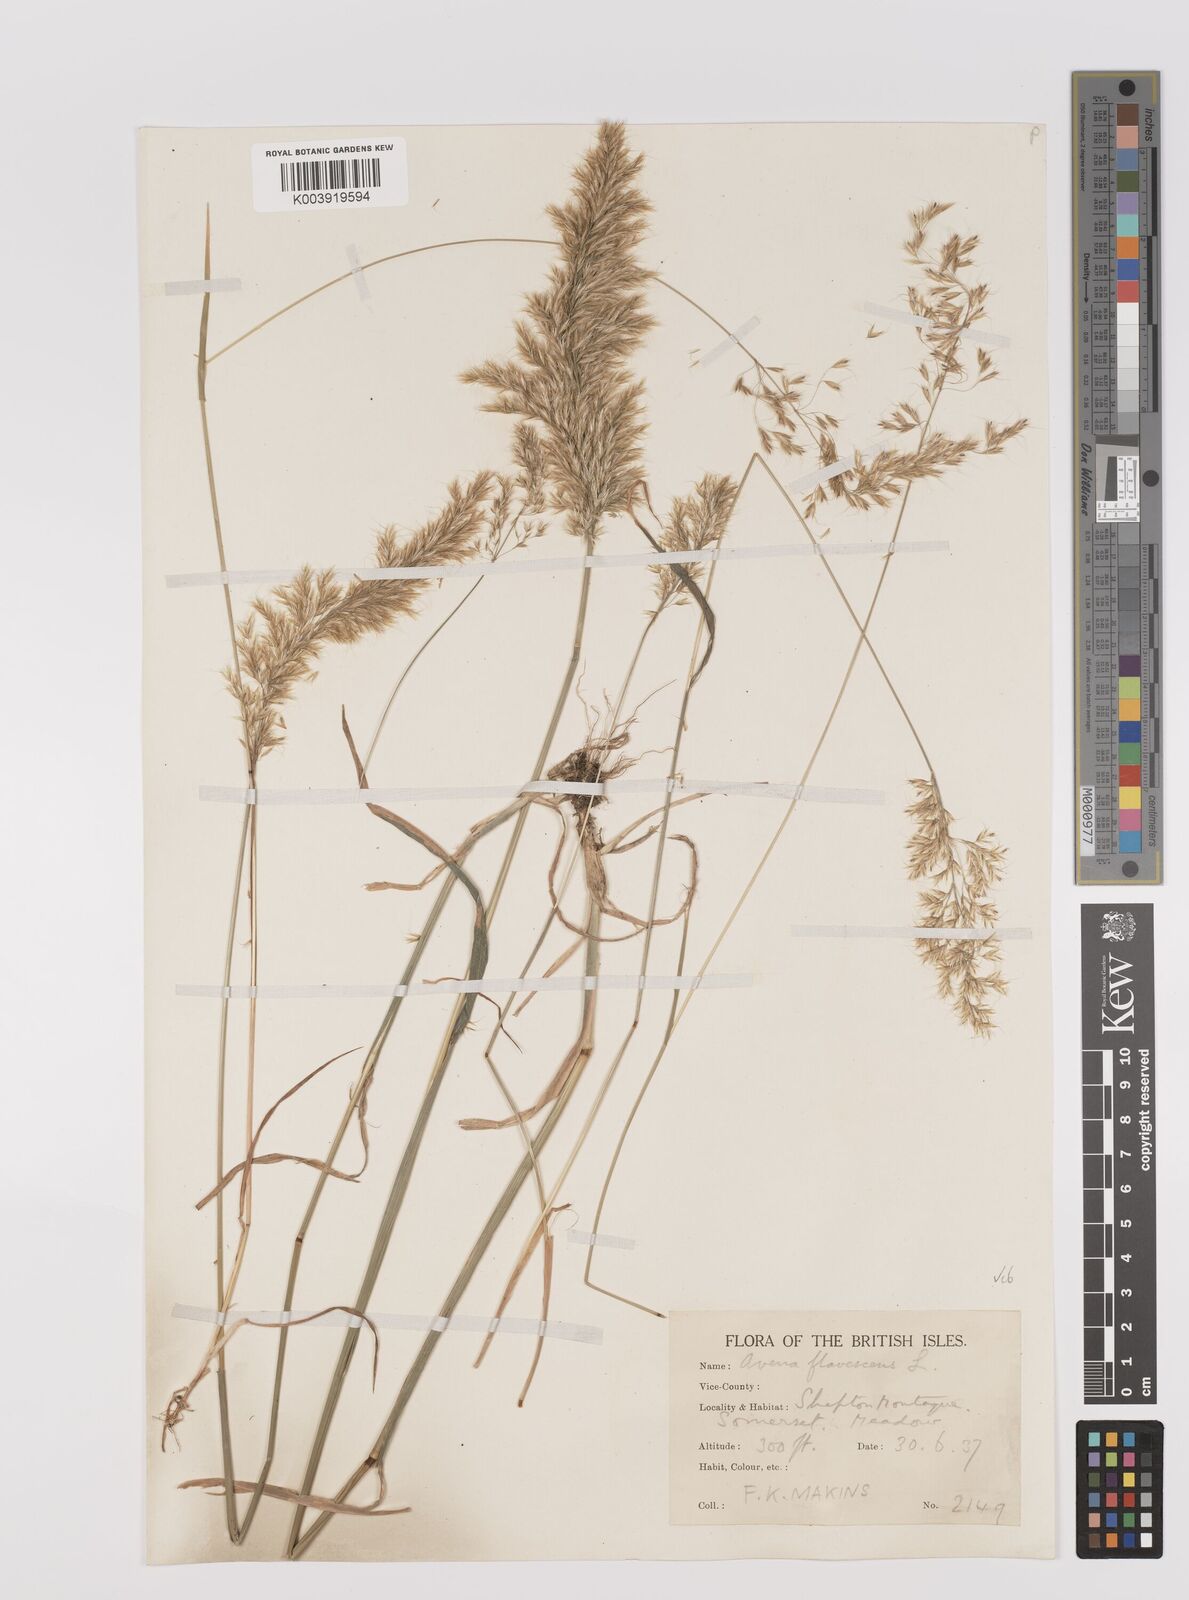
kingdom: Plantae
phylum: Tracheophyta
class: Liliopsida
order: Poales
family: Poaceae
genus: Trisetum
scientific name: Trisetum flavescens
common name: Yellow oat-grass
